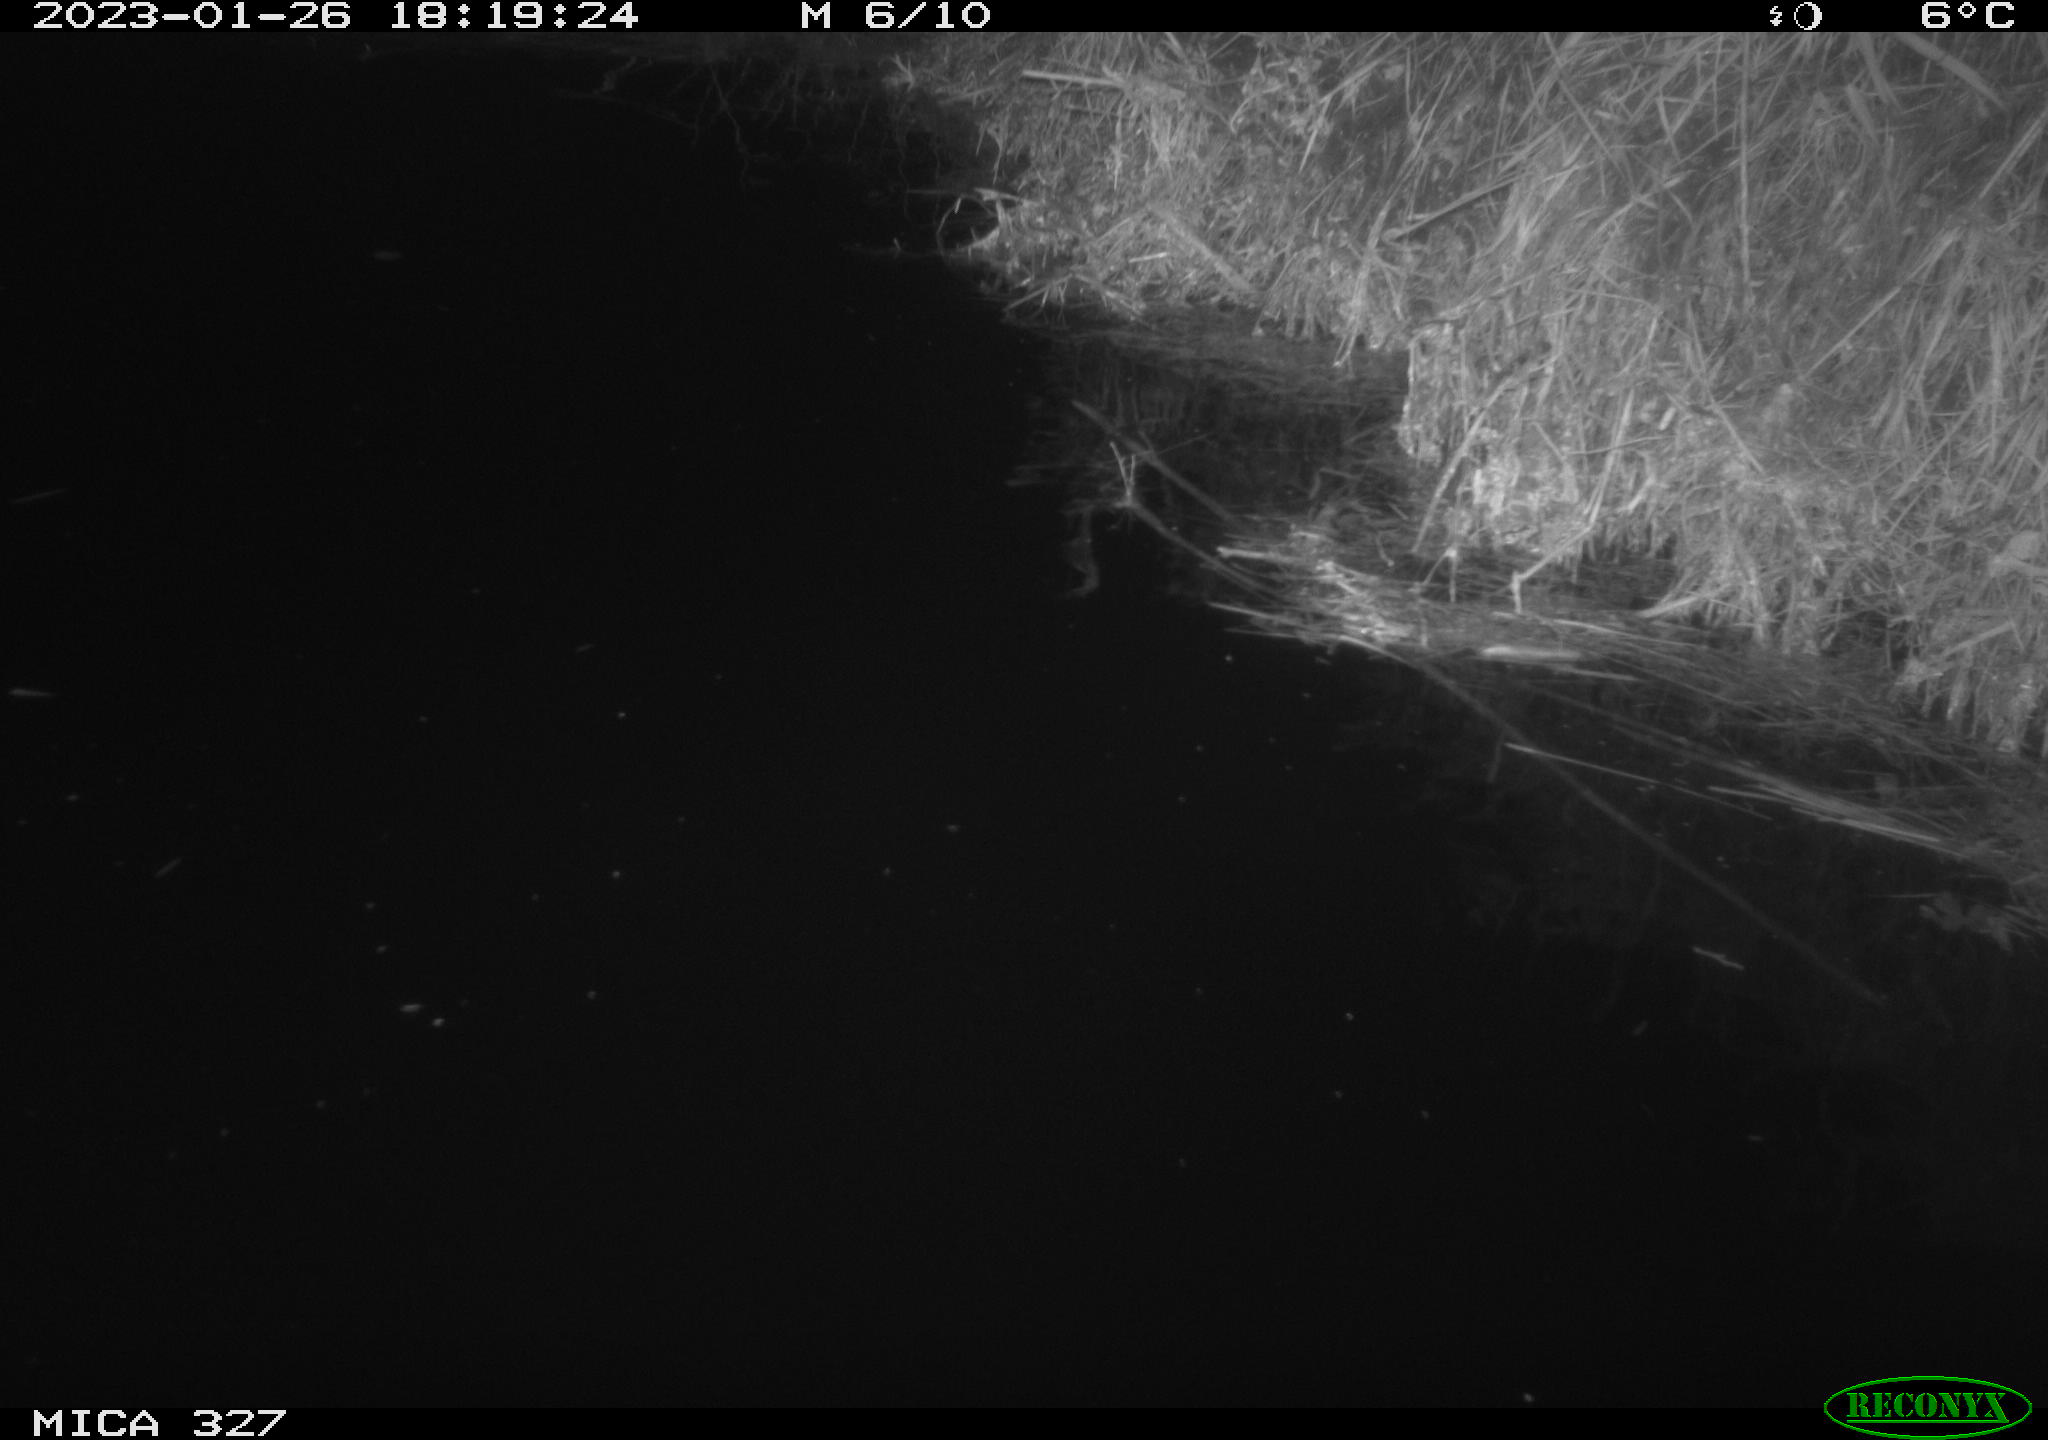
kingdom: Animalia
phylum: Chordata
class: Mammalia
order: Rodentia
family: Cricetidae
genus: Ondatra
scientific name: Ondatra zibethicus
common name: Muskrat
